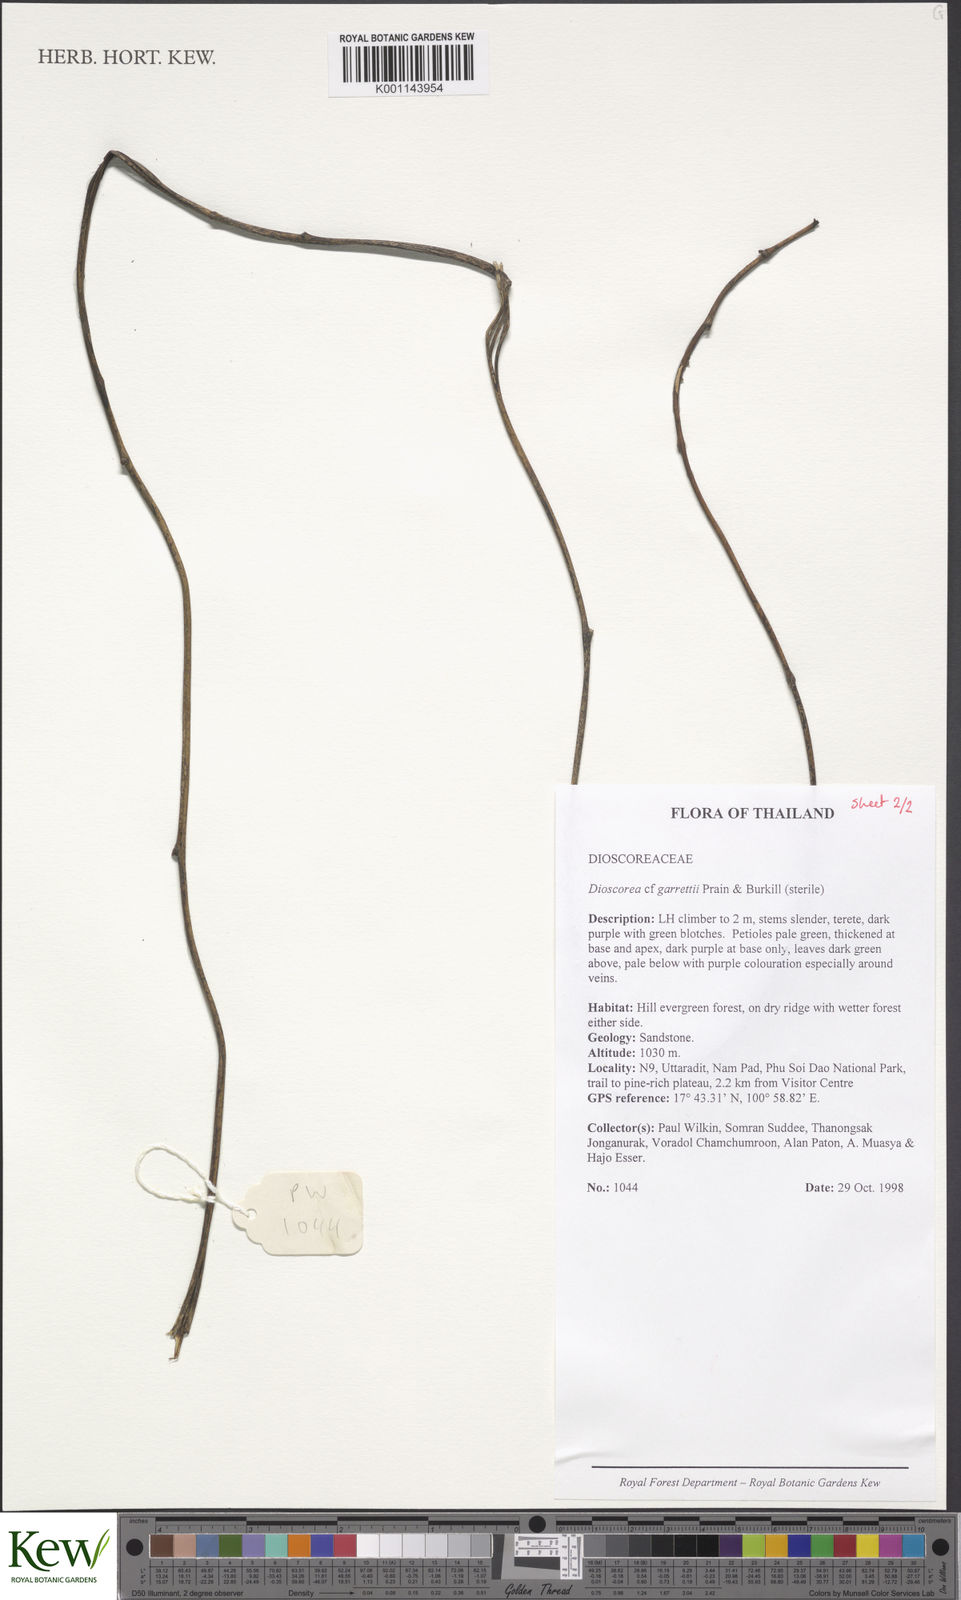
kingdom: Plantae
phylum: Tracheophyta
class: Liliopsida
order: Dioscoreales
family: Dioscoreaceae
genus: Dioscorea
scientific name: Dioscorea filiformis
